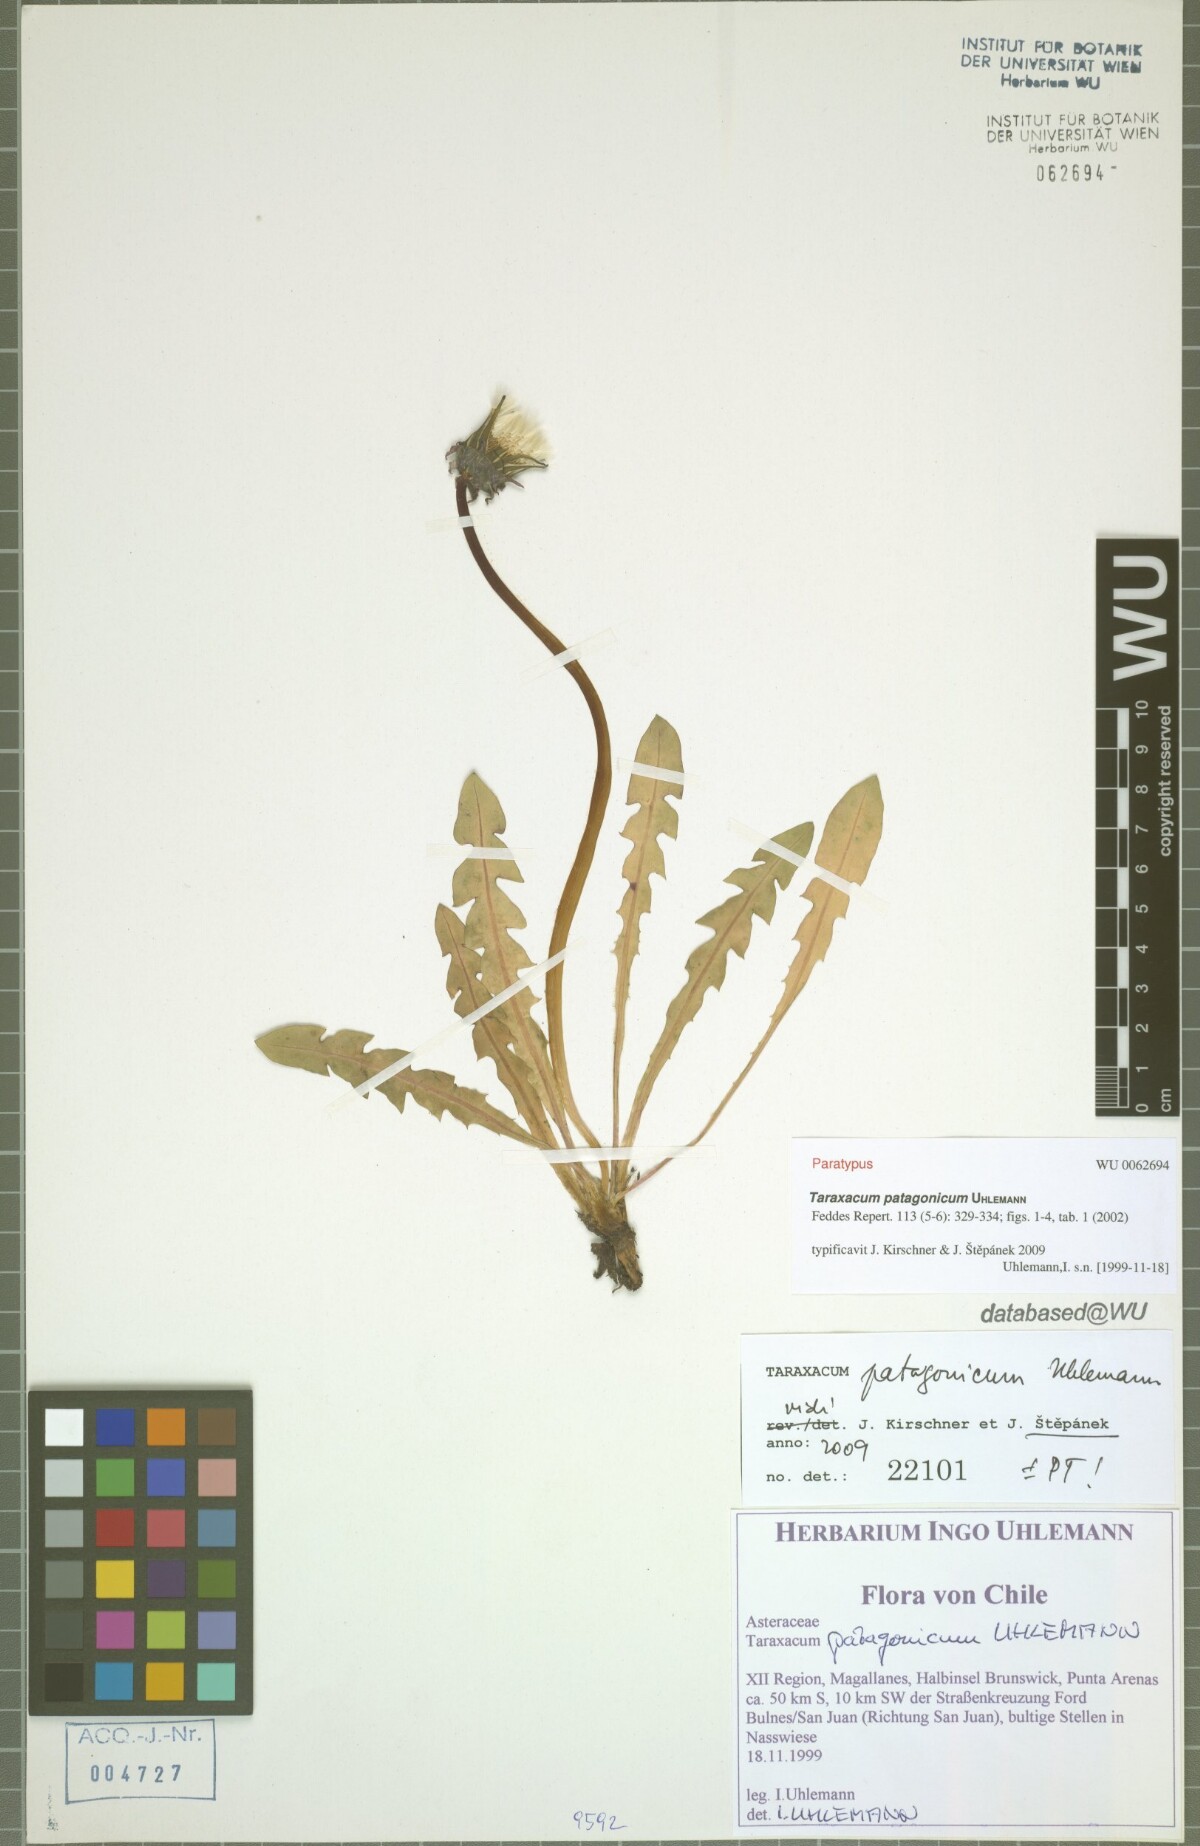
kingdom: Plantae
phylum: Tracheophyta
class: Magnoliopsida
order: Asterales
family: Asteraceae
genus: Taraxacum
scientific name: Taraxacum patagonicum
